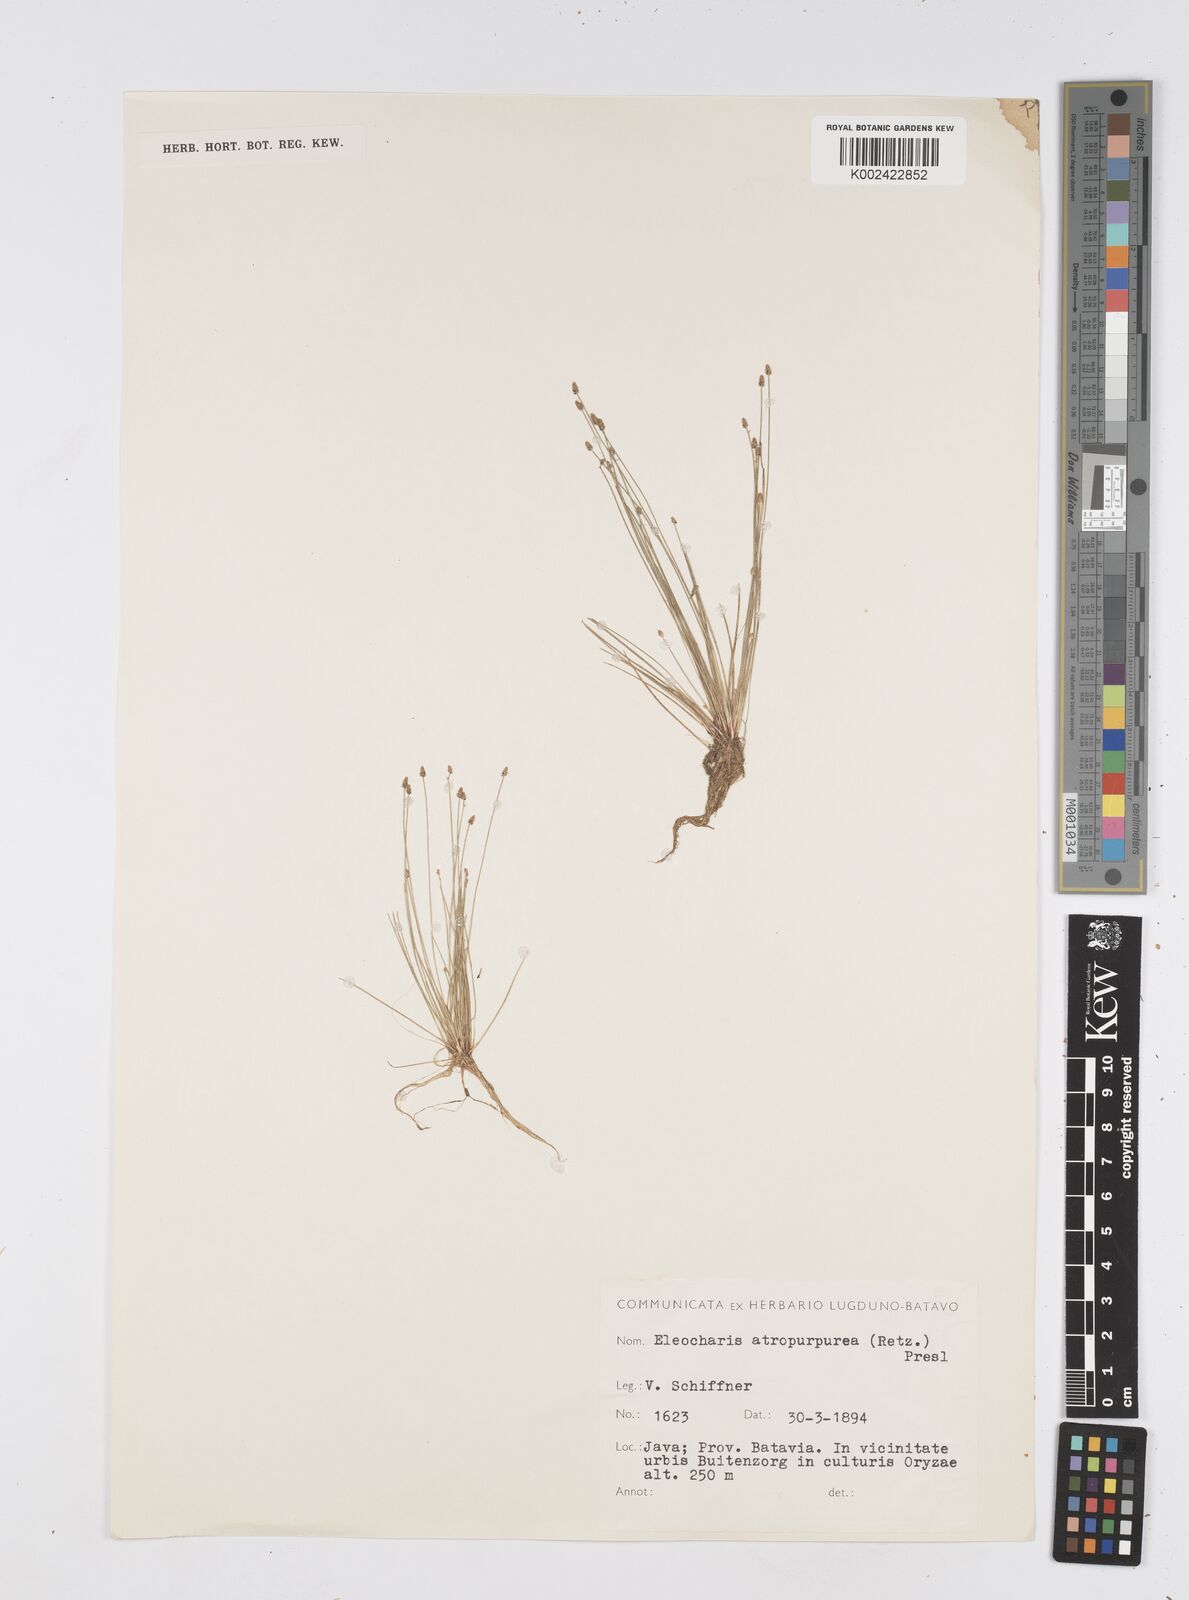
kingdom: Plantae
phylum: Tracheophyta
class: Liliopsida
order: Poales
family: Cyperaceae
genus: Eleocharis
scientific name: Eleocharis
